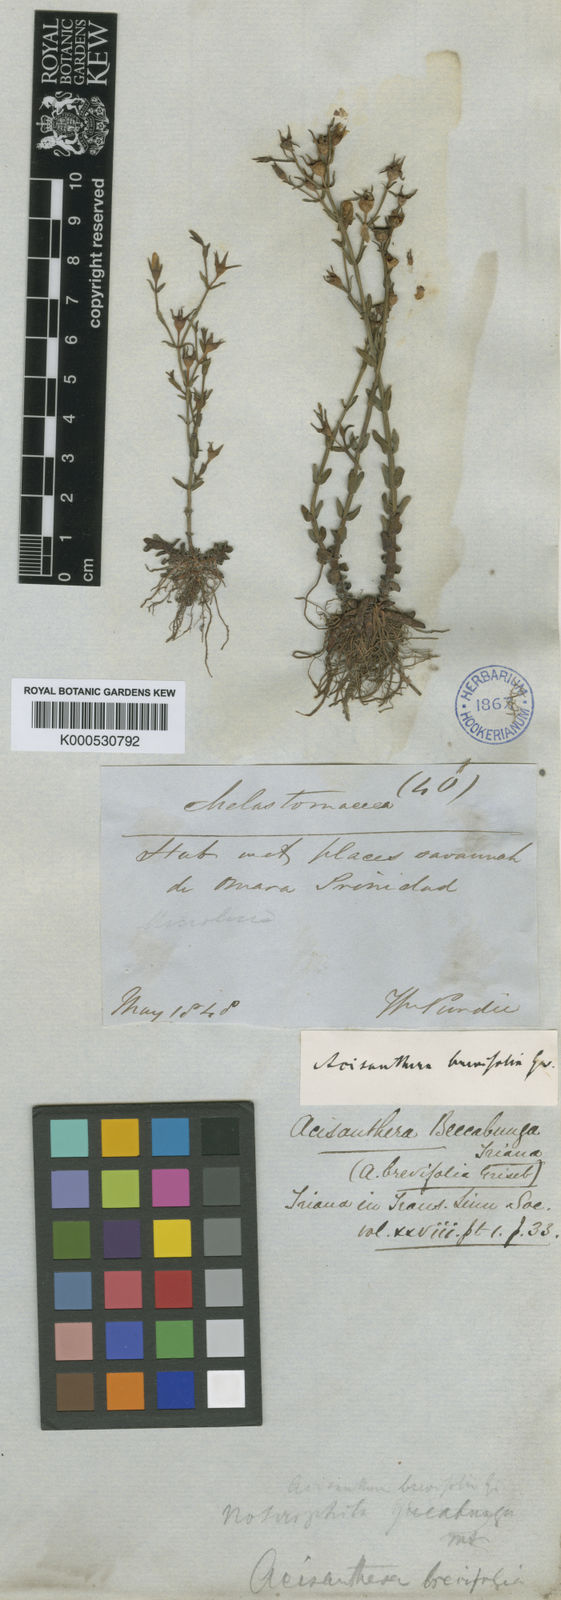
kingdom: Plantae
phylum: Tracheophyta
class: Magnoliopsida
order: Myrtales
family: Melastomataceae
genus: Noterophila
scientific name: Noterophila bivalvis
